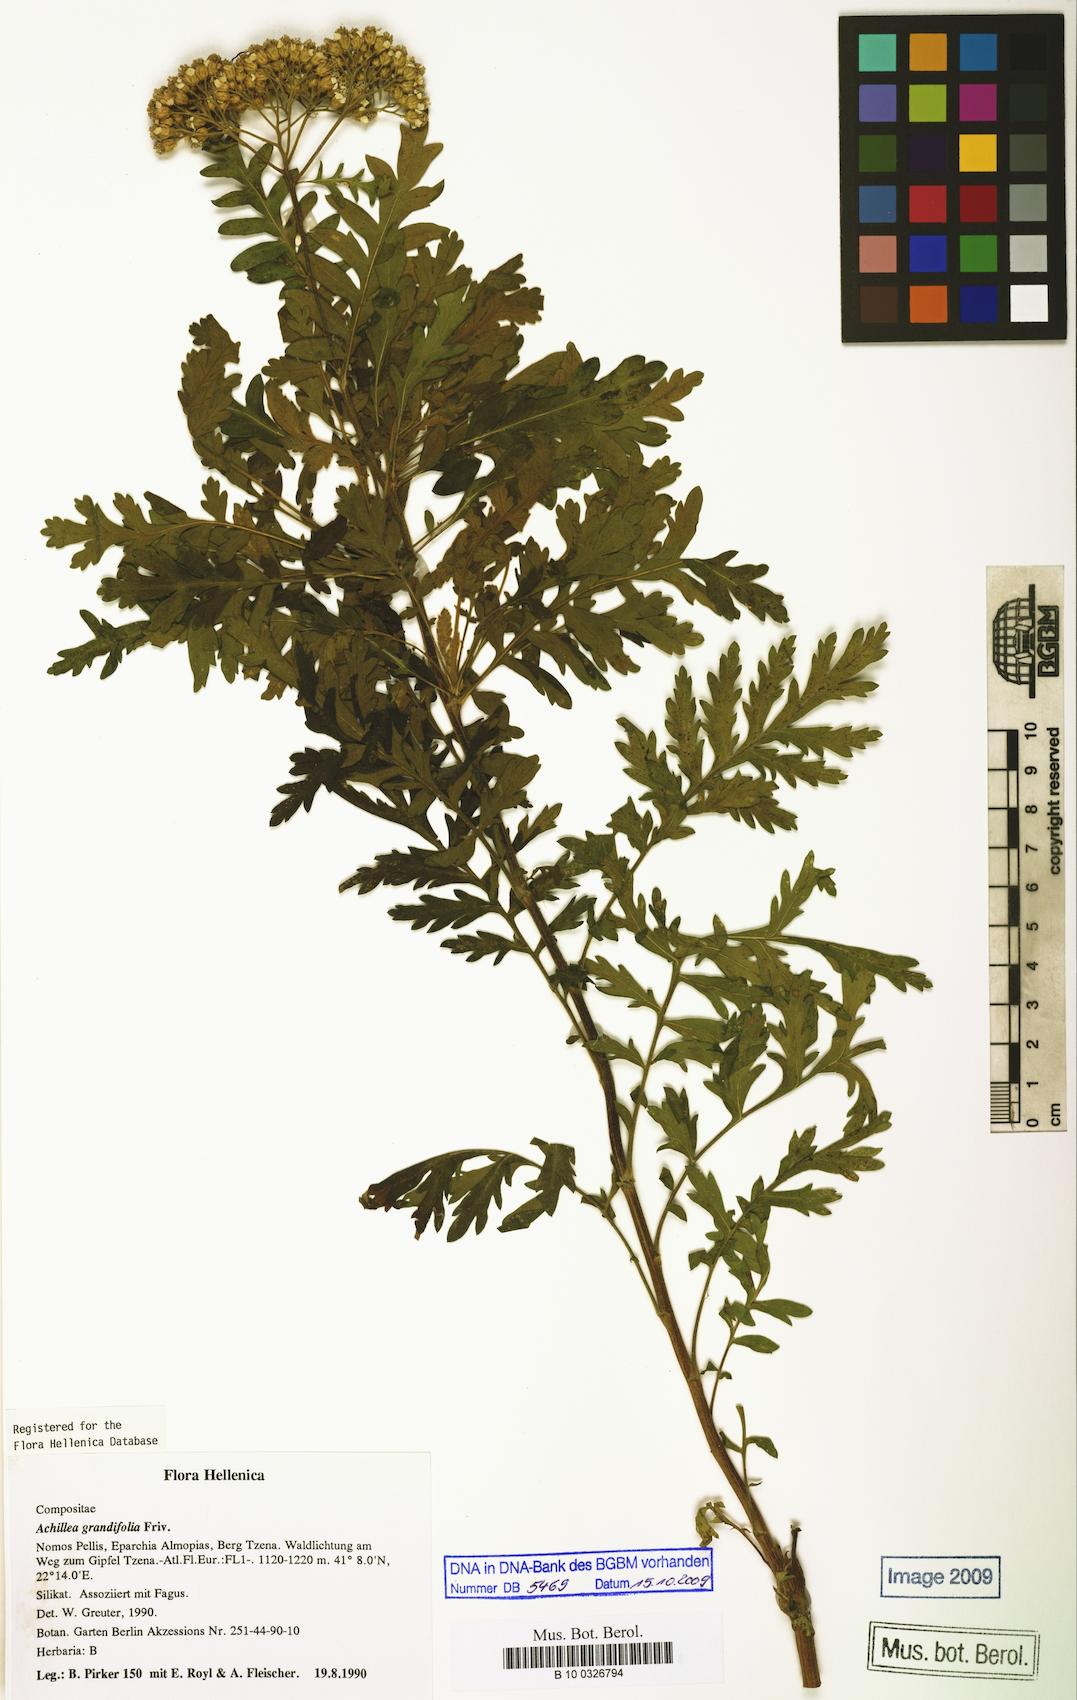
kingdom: Plantae
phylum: Tracheophyta
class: Magnoliopsida
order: Asterales
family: Asteraceae
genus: Achillea
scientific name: Achillea grandifolia
